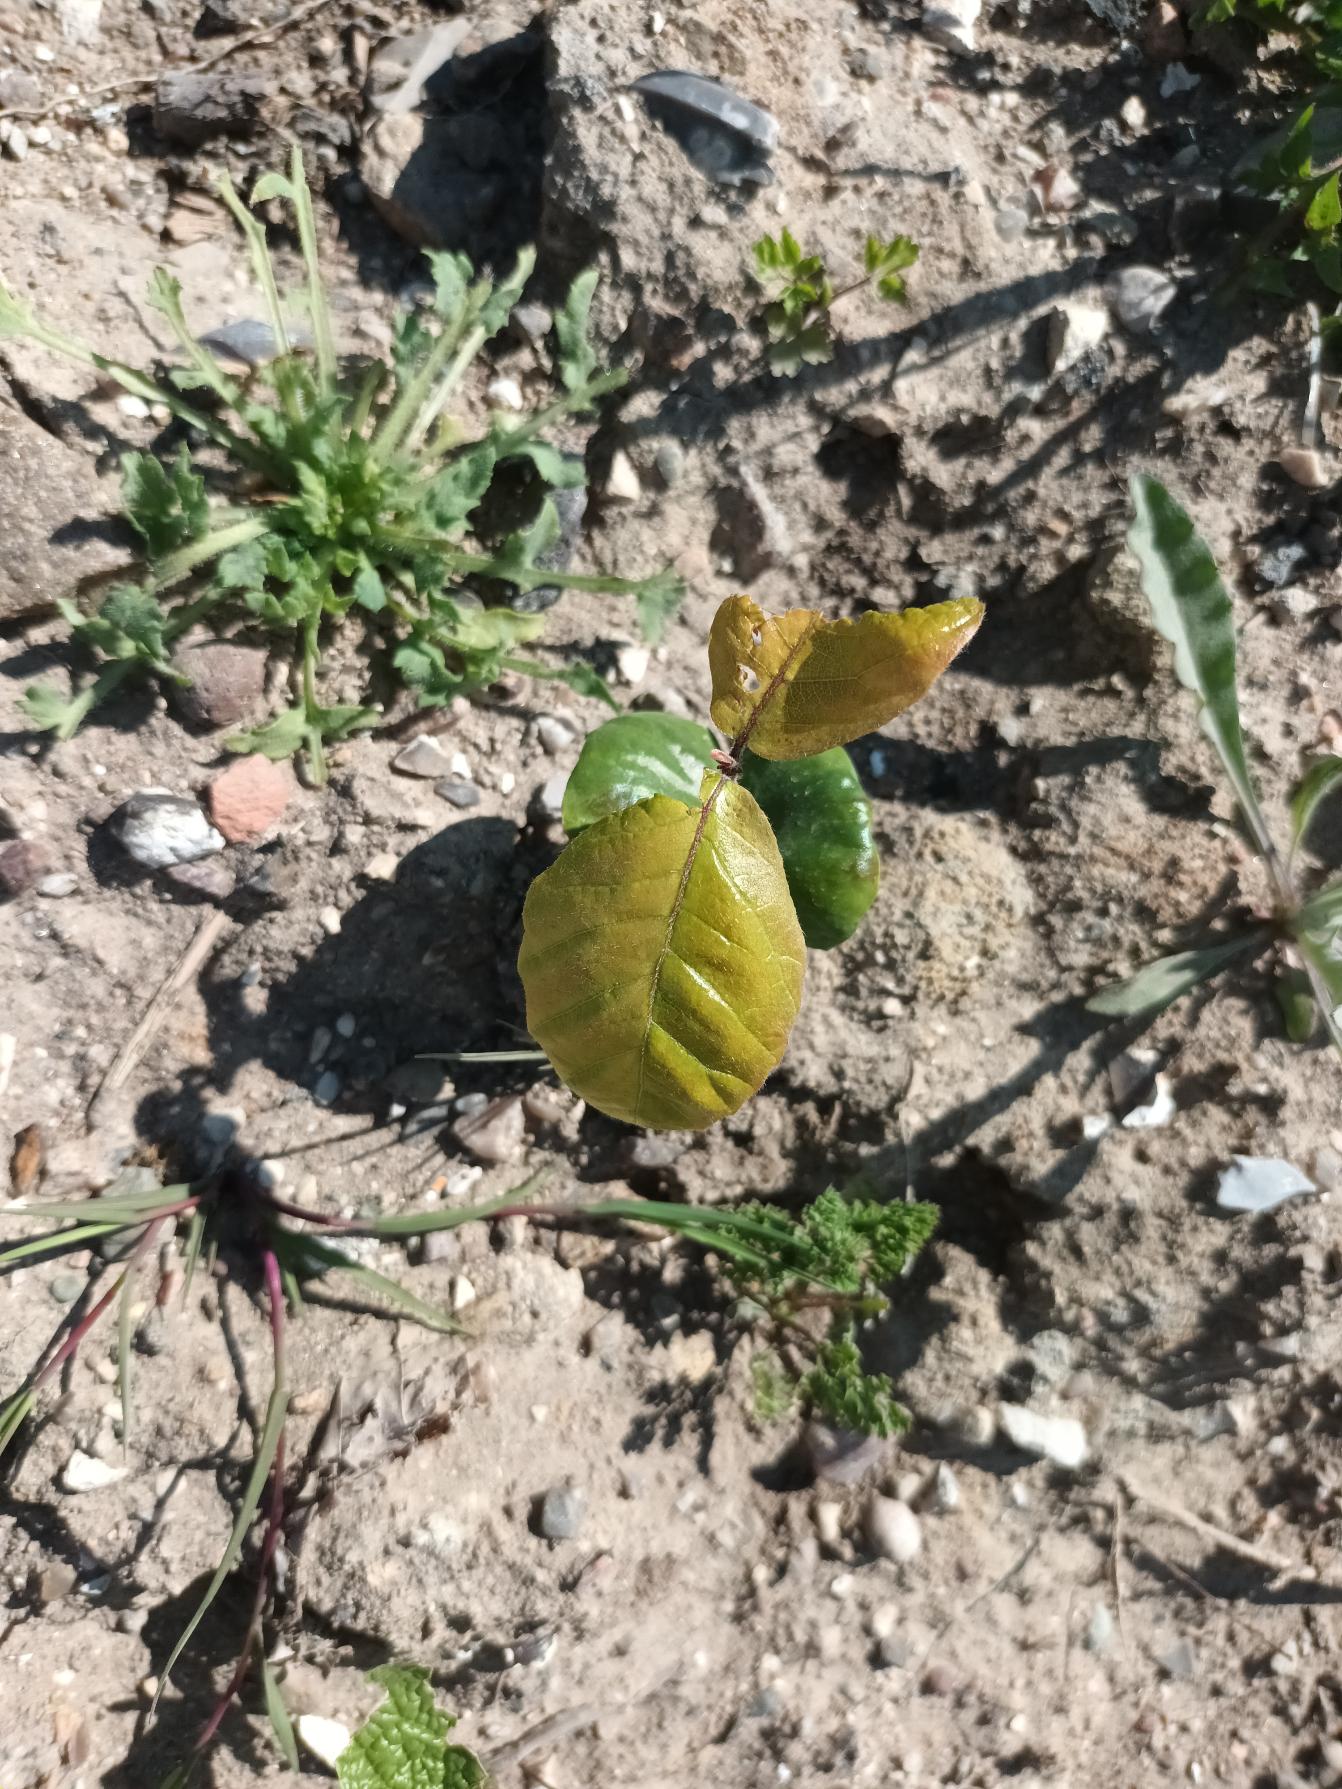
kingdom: Plantae
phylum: Tracheophyta
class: Magnoliopsida
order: Fagales
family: Fagaceae
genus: Fagus
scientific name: Fagus sylvatica
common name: Bøg
